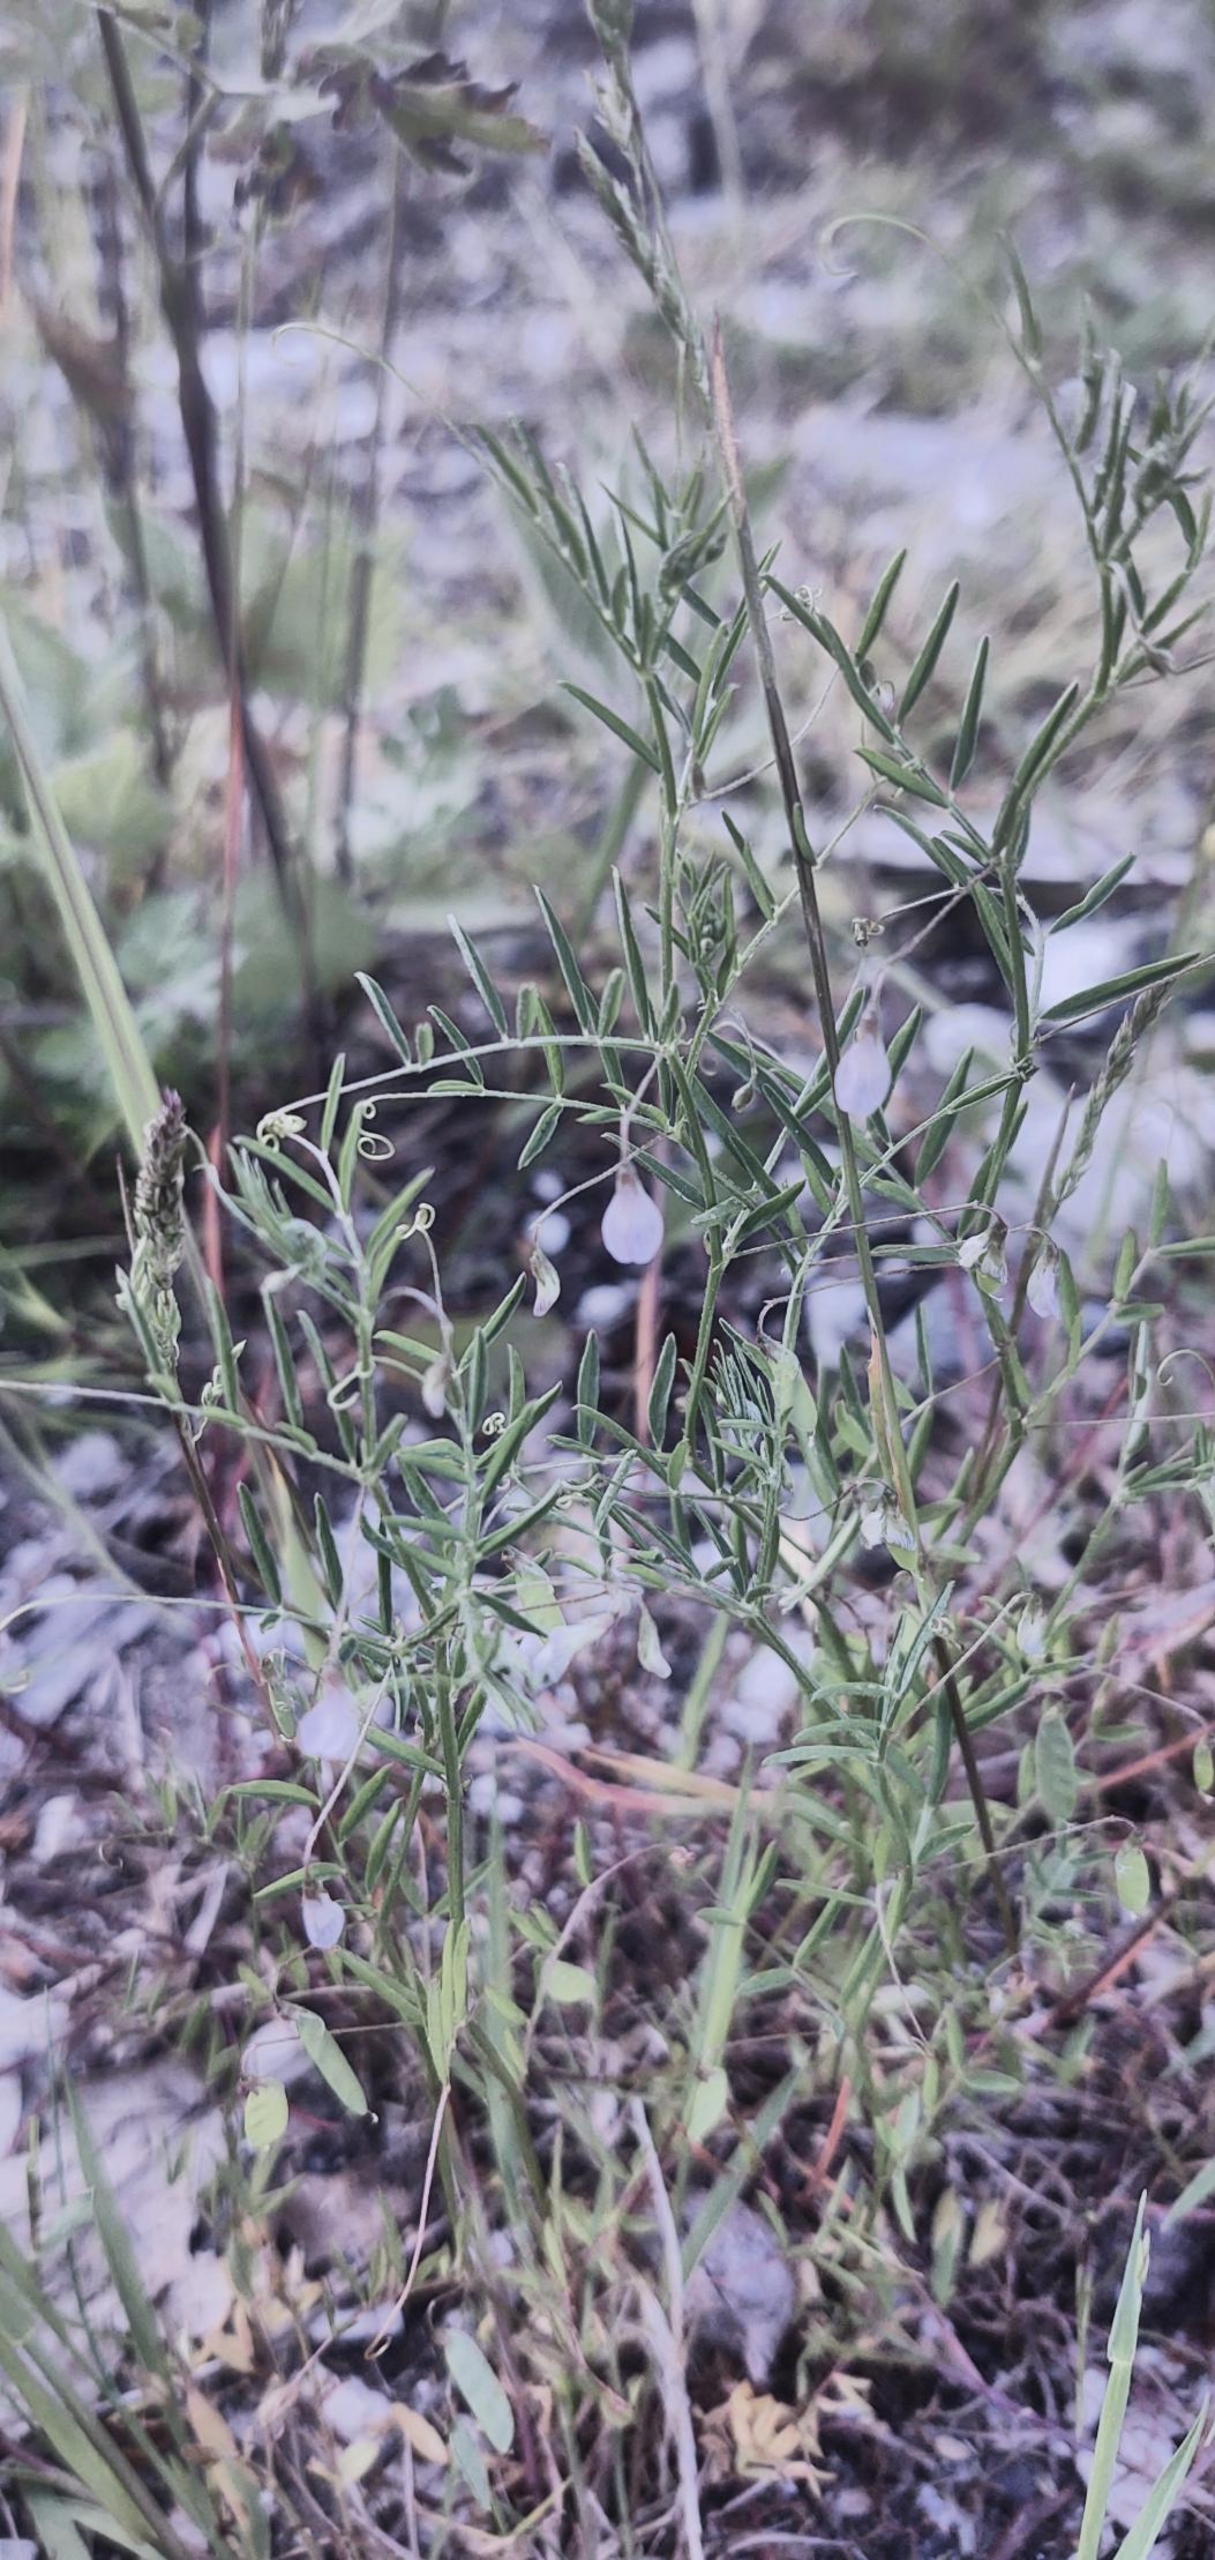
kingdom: Plantae
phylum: Tracheophyta
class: Magnoliopsida
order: Fabales
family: Fabaceae
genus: Vicia
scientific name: Vicia tetrasperma
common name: Tadder-vikke
